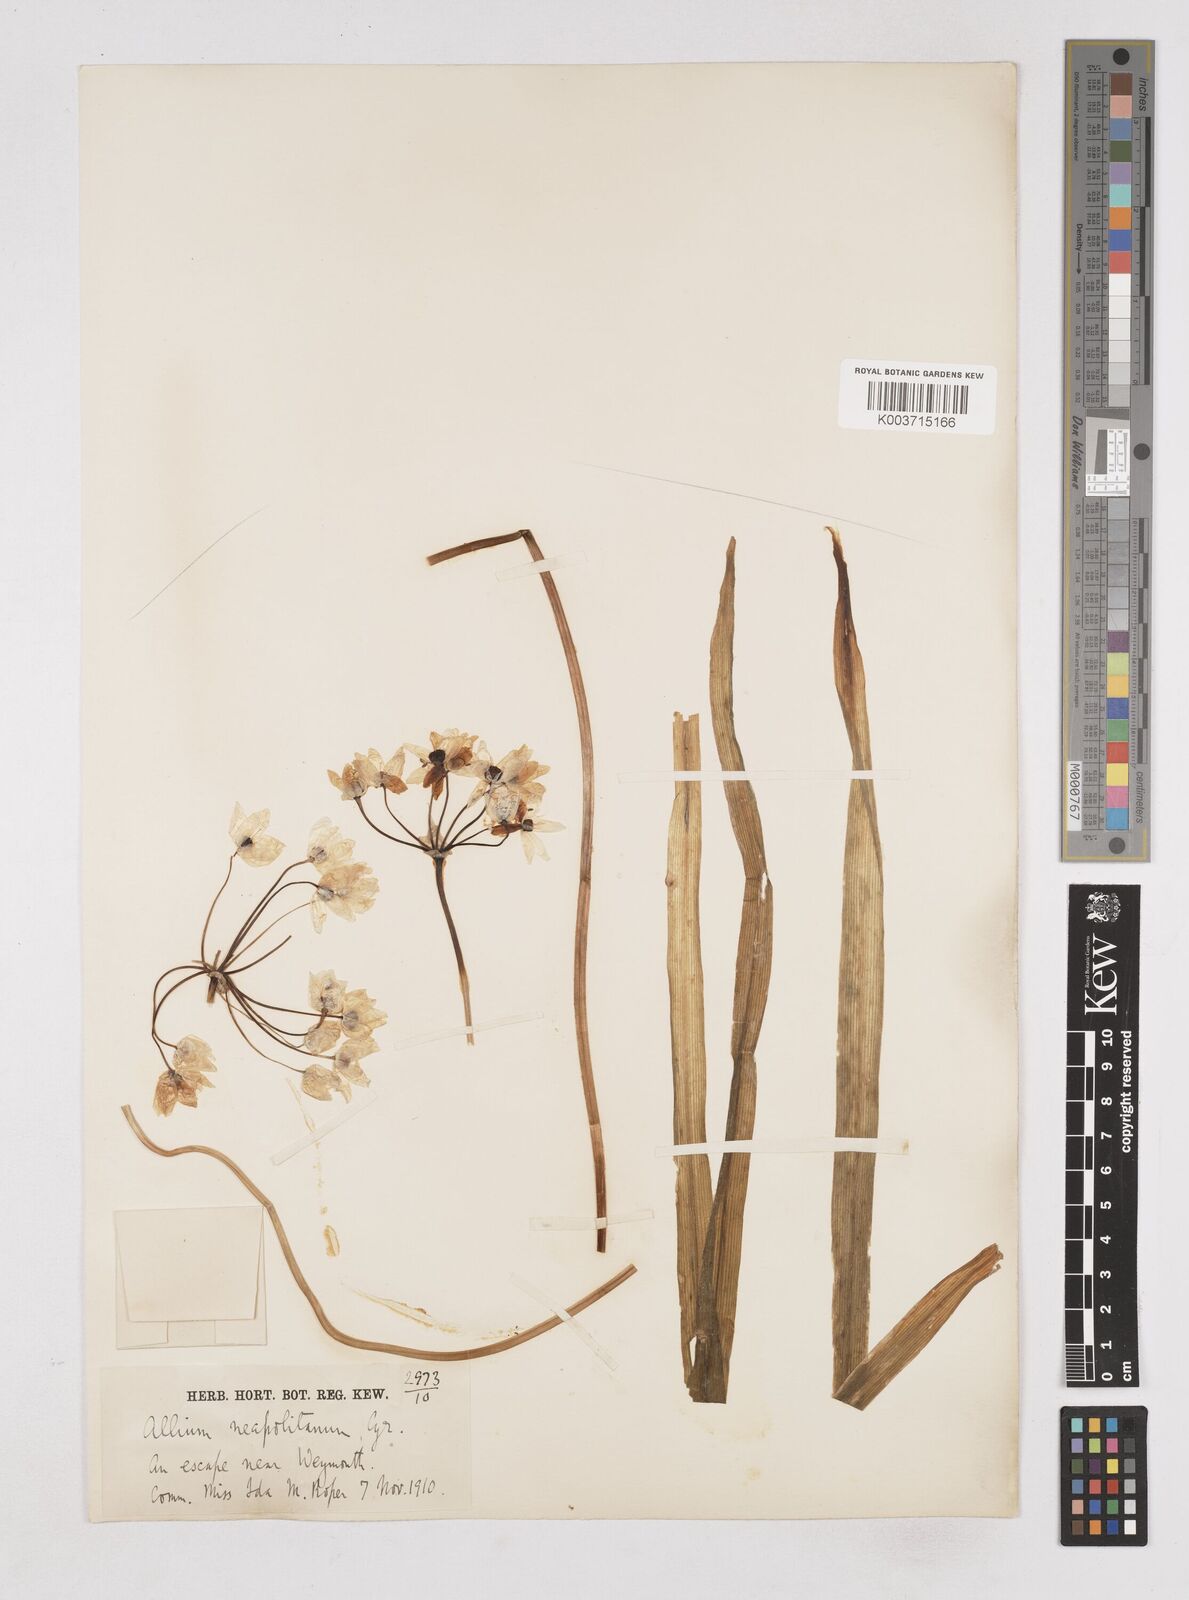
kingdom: Plantae
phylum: Tracheophyta
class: Liliopsida
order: Asparagales
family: Amaryllidaceae
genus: Allium
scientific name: Allium neapolitanum
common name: Neapolitan garlic
